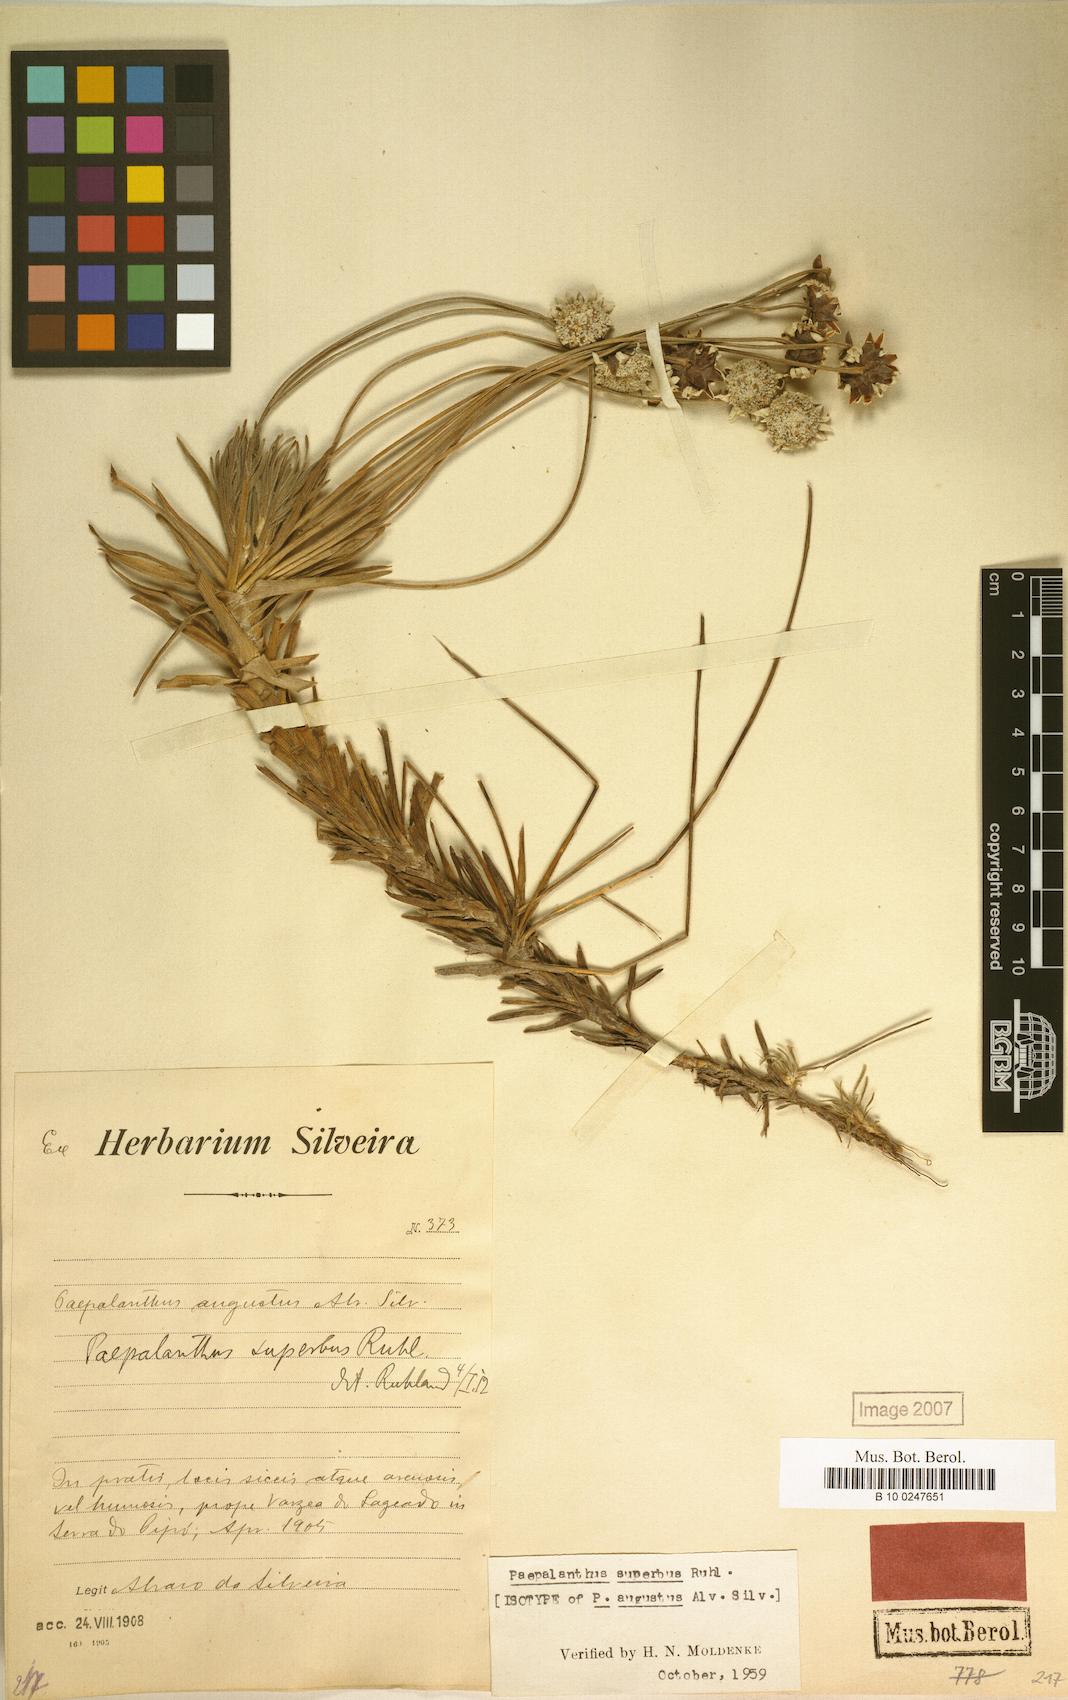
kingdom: Plantae
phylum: Tracheophyta
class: Liliopsida
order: Poales
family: Eriocaulaceae
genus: Paepalanthus
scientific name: Paepalanthus augustus
